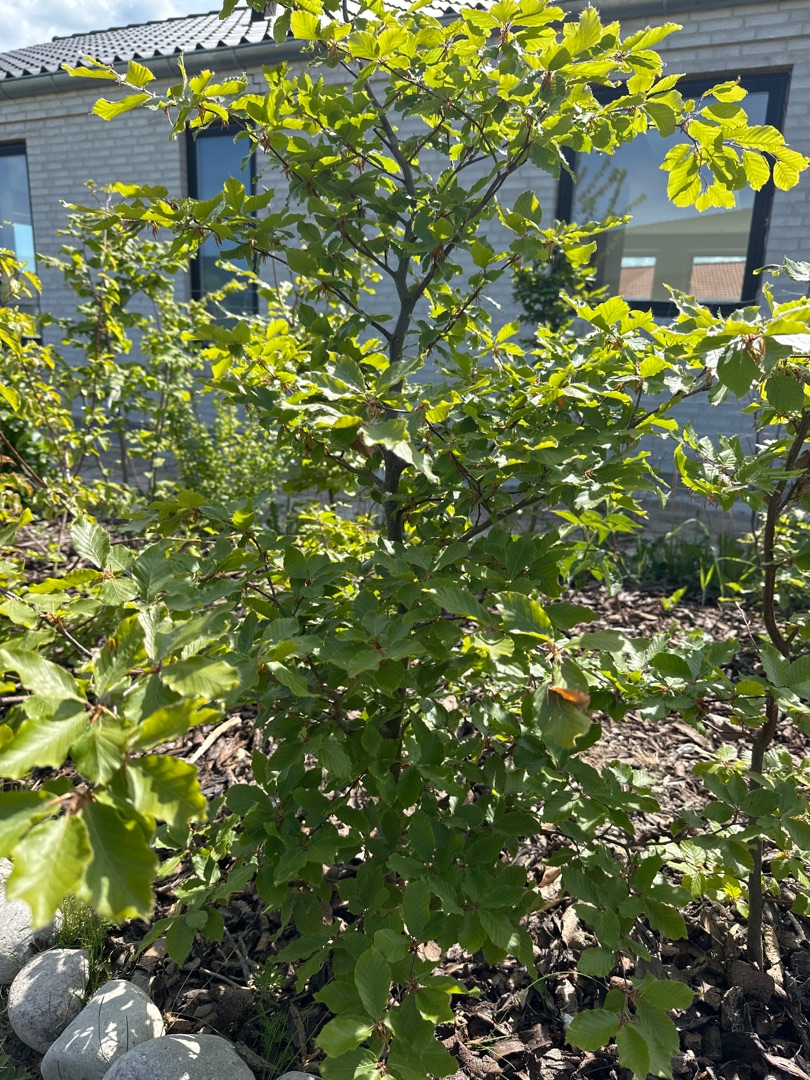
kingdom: Plantae
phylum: Tracheophyta
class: Magnoliopsida
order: Fagales
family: Fagaceae
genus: Fagus
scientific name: Fagus sylvatica
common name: Bøg
